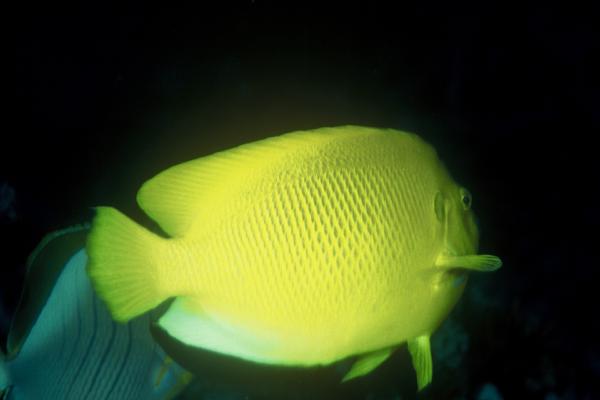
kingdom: Animalia
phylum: Chordata
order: Perciformes
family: Pomacanthidae
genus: Apolemichthys
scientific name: Apolemichthys trimaculatus
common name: Threespot angelfish
